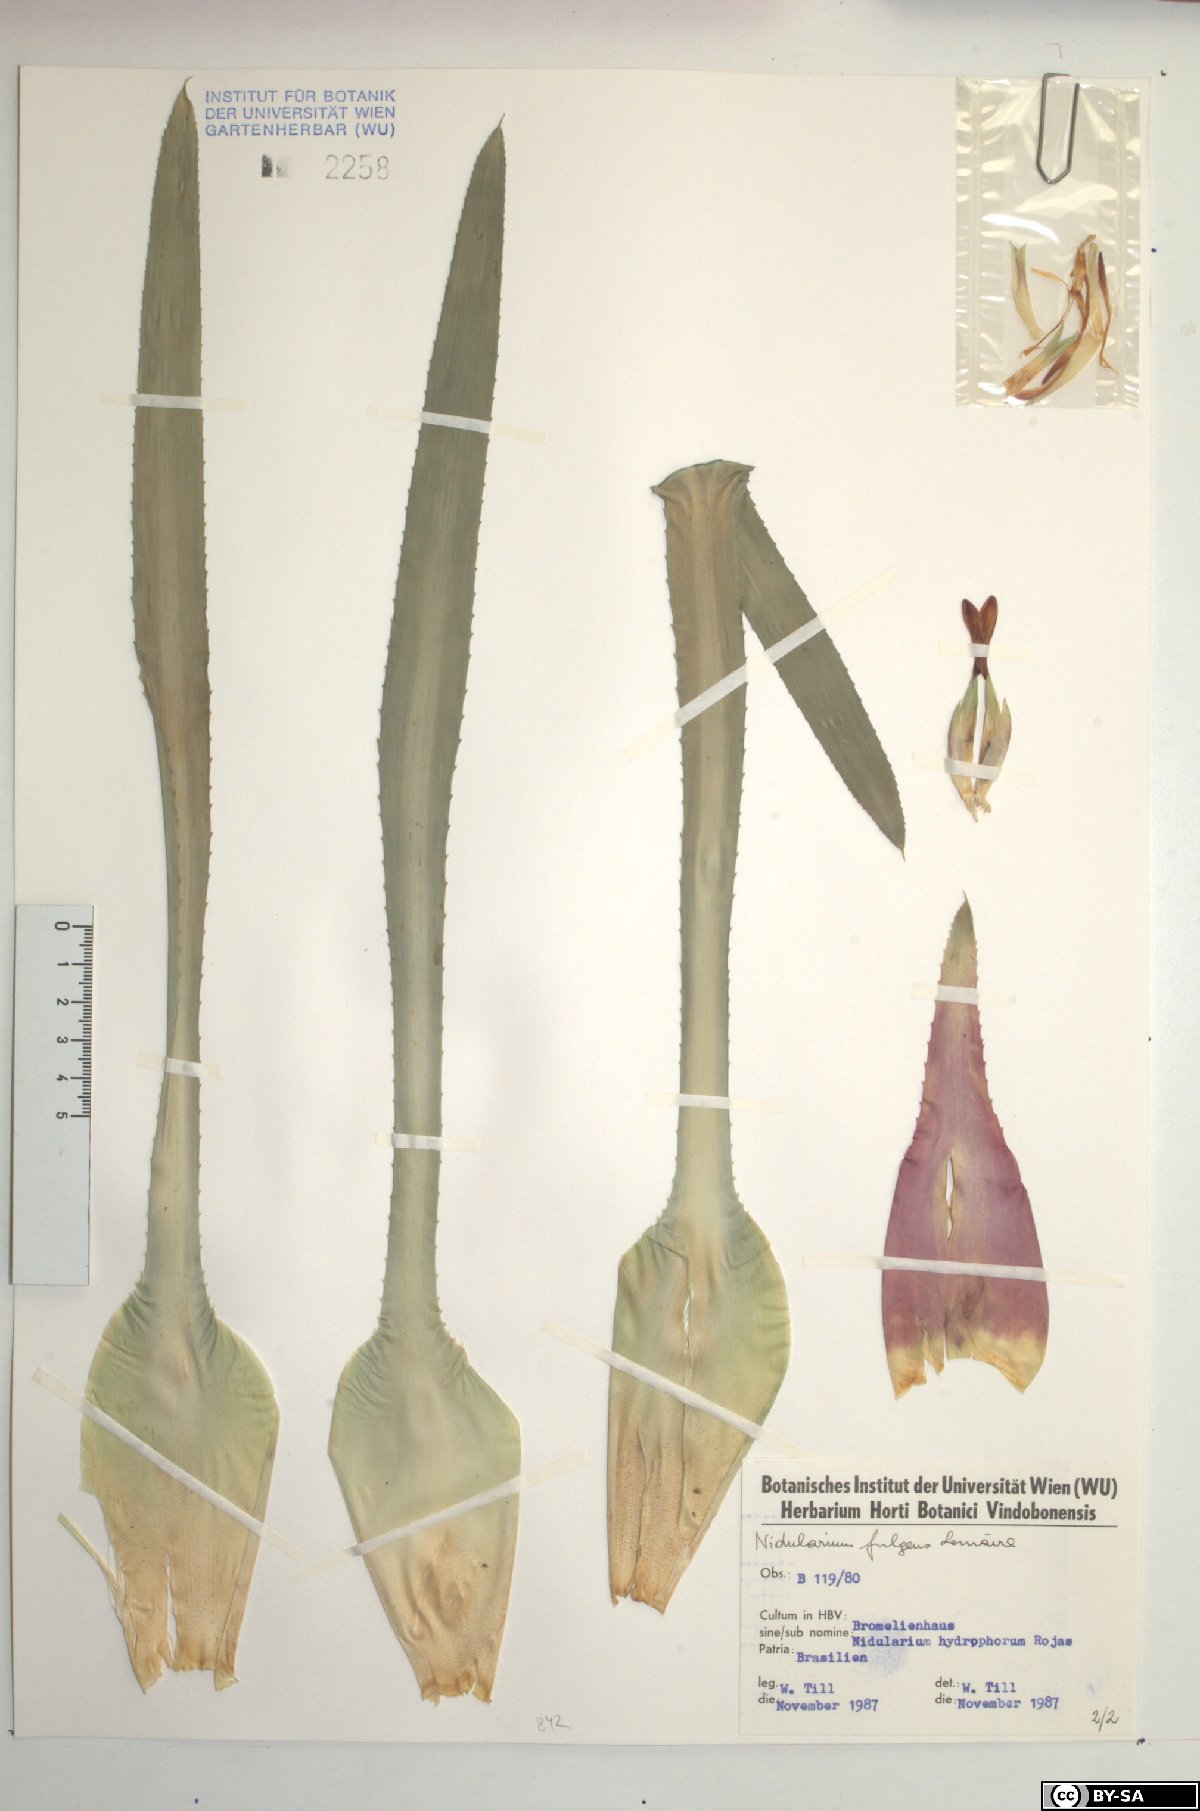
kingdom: Plantae
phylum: Tracheophyta
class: Liliopsida
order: Poales
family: Bromeliaceae
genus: Nidularium
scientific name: Nidularium fulgens
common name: Blushing bromeliad
